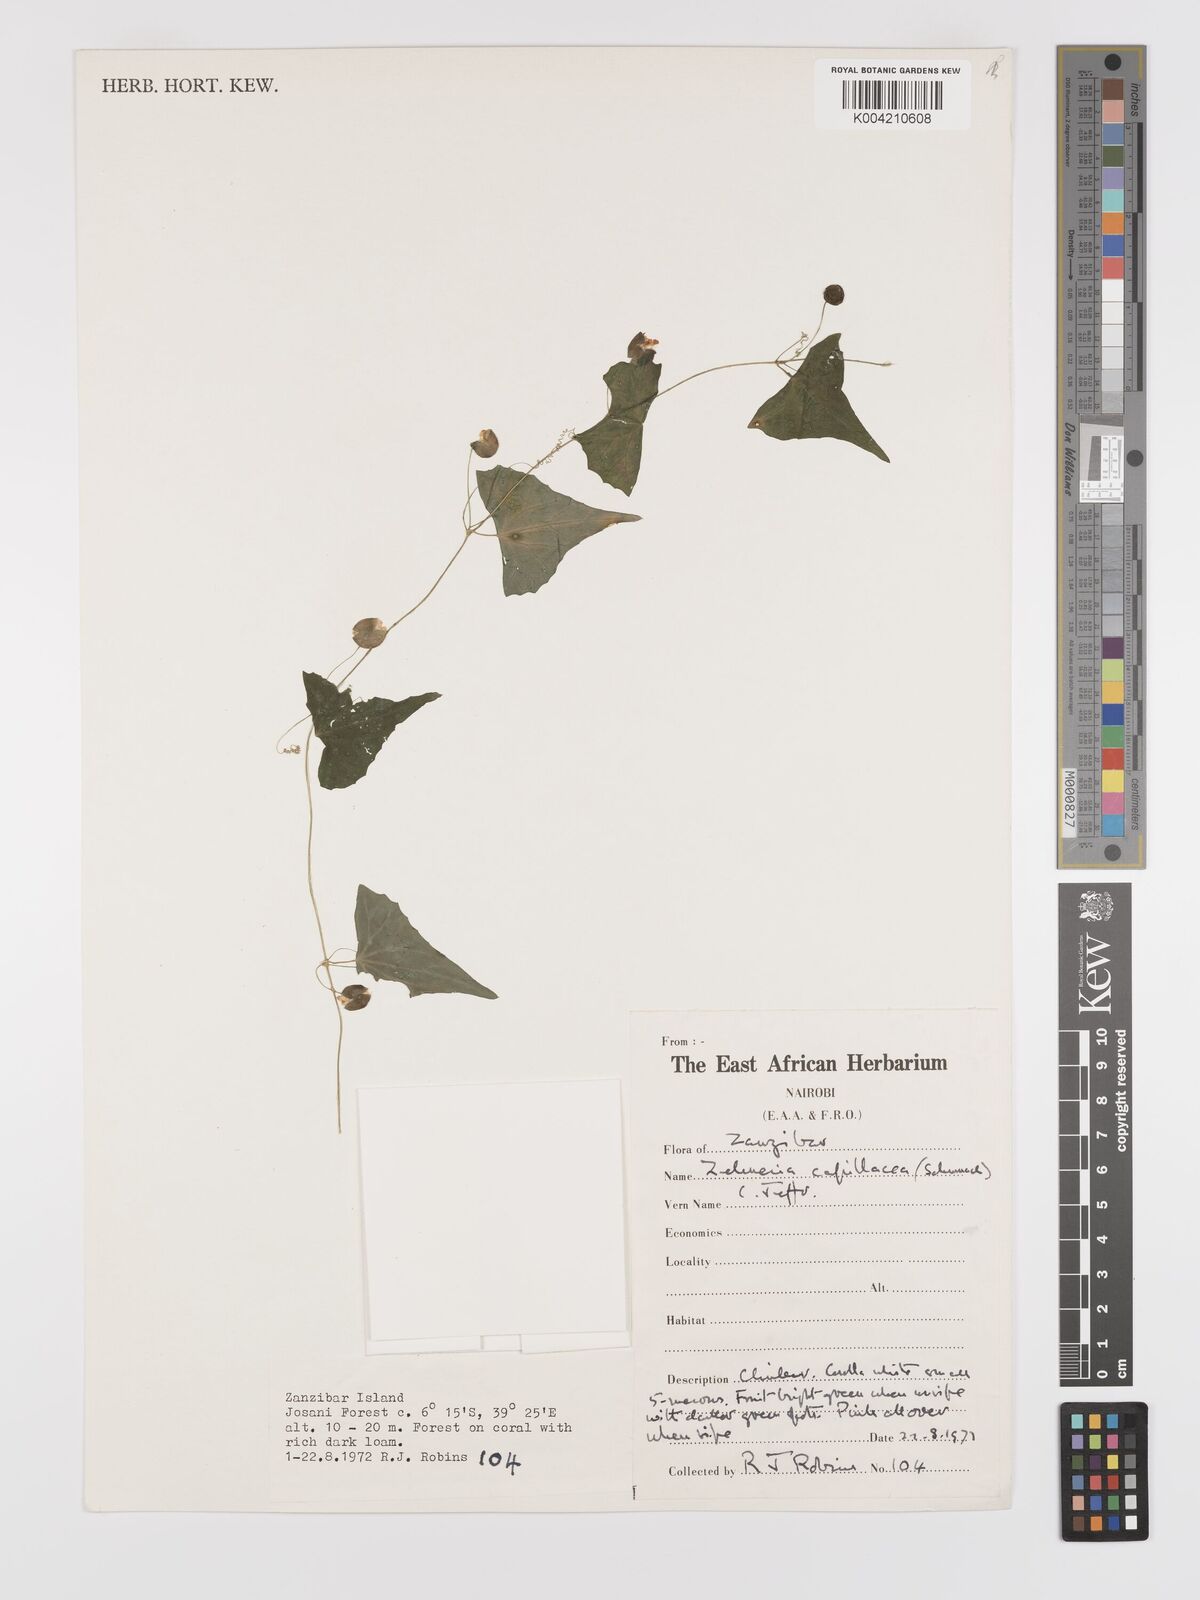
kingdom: Plantae
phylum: Tracheophyta
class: Magnoliopsida
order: Cucurbitales
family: Cucurbitaceae
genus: Zehneria
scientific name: Zehneria capillacea
